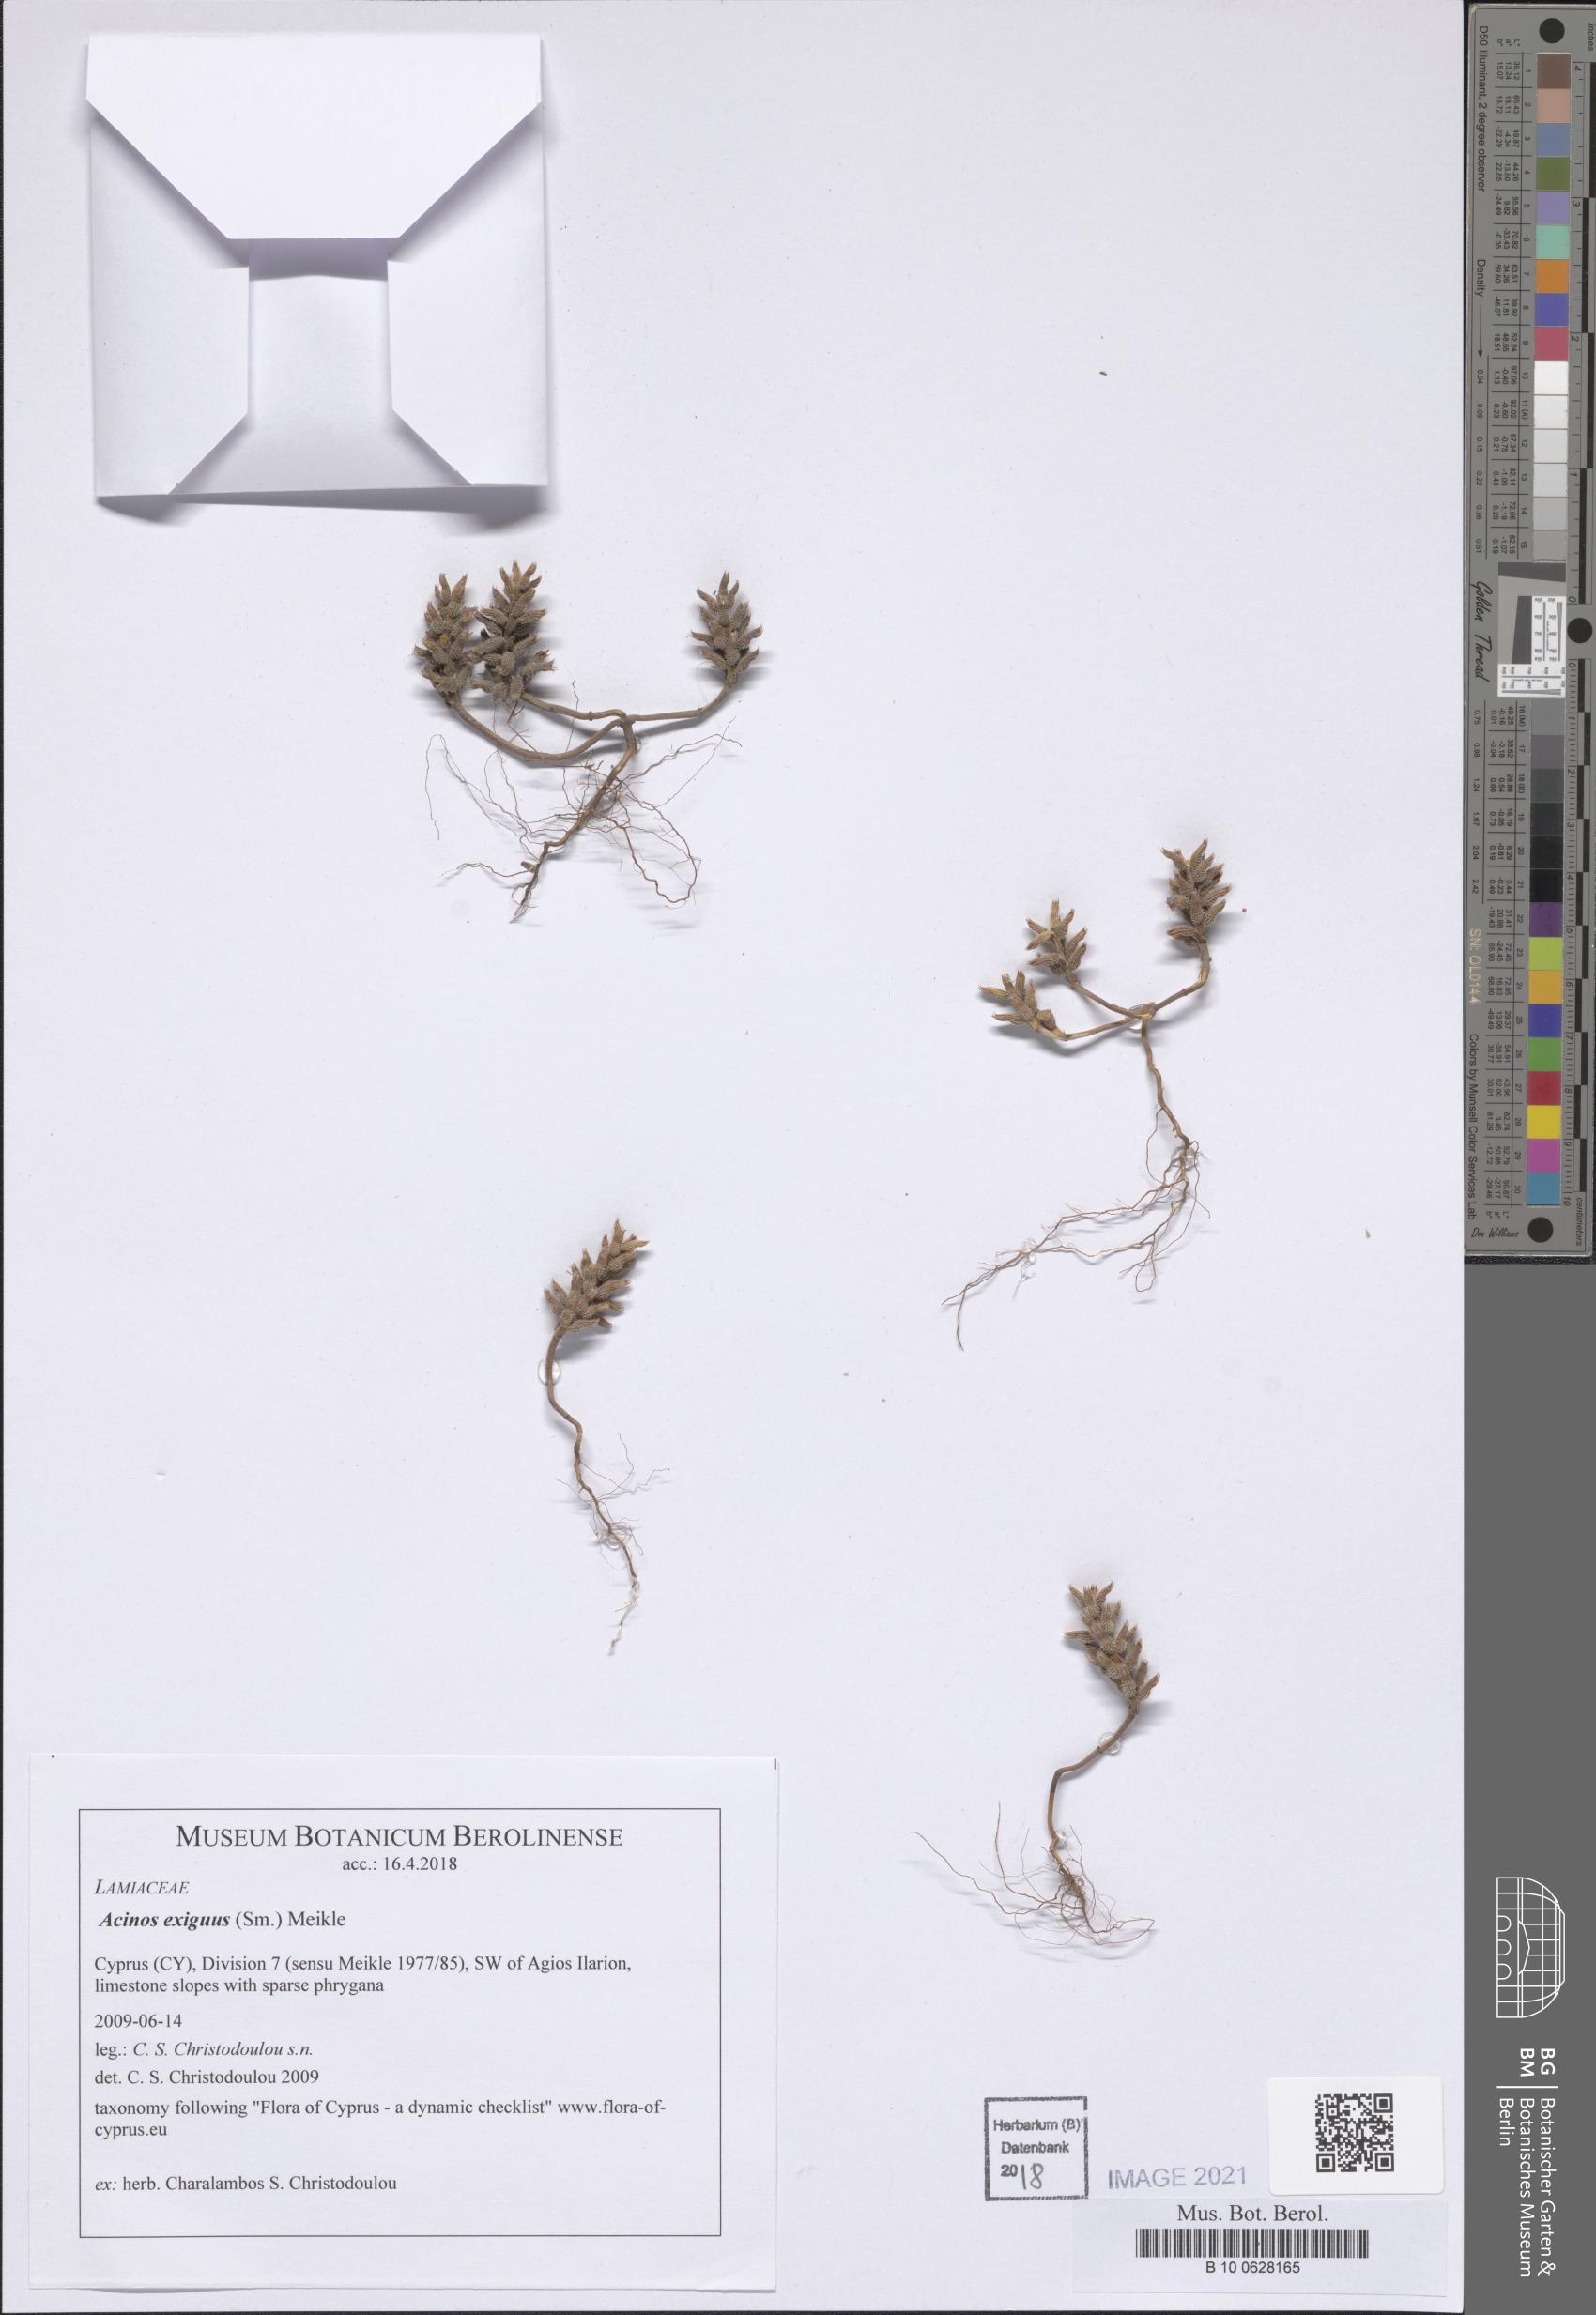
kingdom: Plantae
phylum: Tracheophyta
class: Magnoliopsida
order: Lamiales
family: Lamiaceae
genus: Clinopodium
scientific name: Clinopodium graveolens
